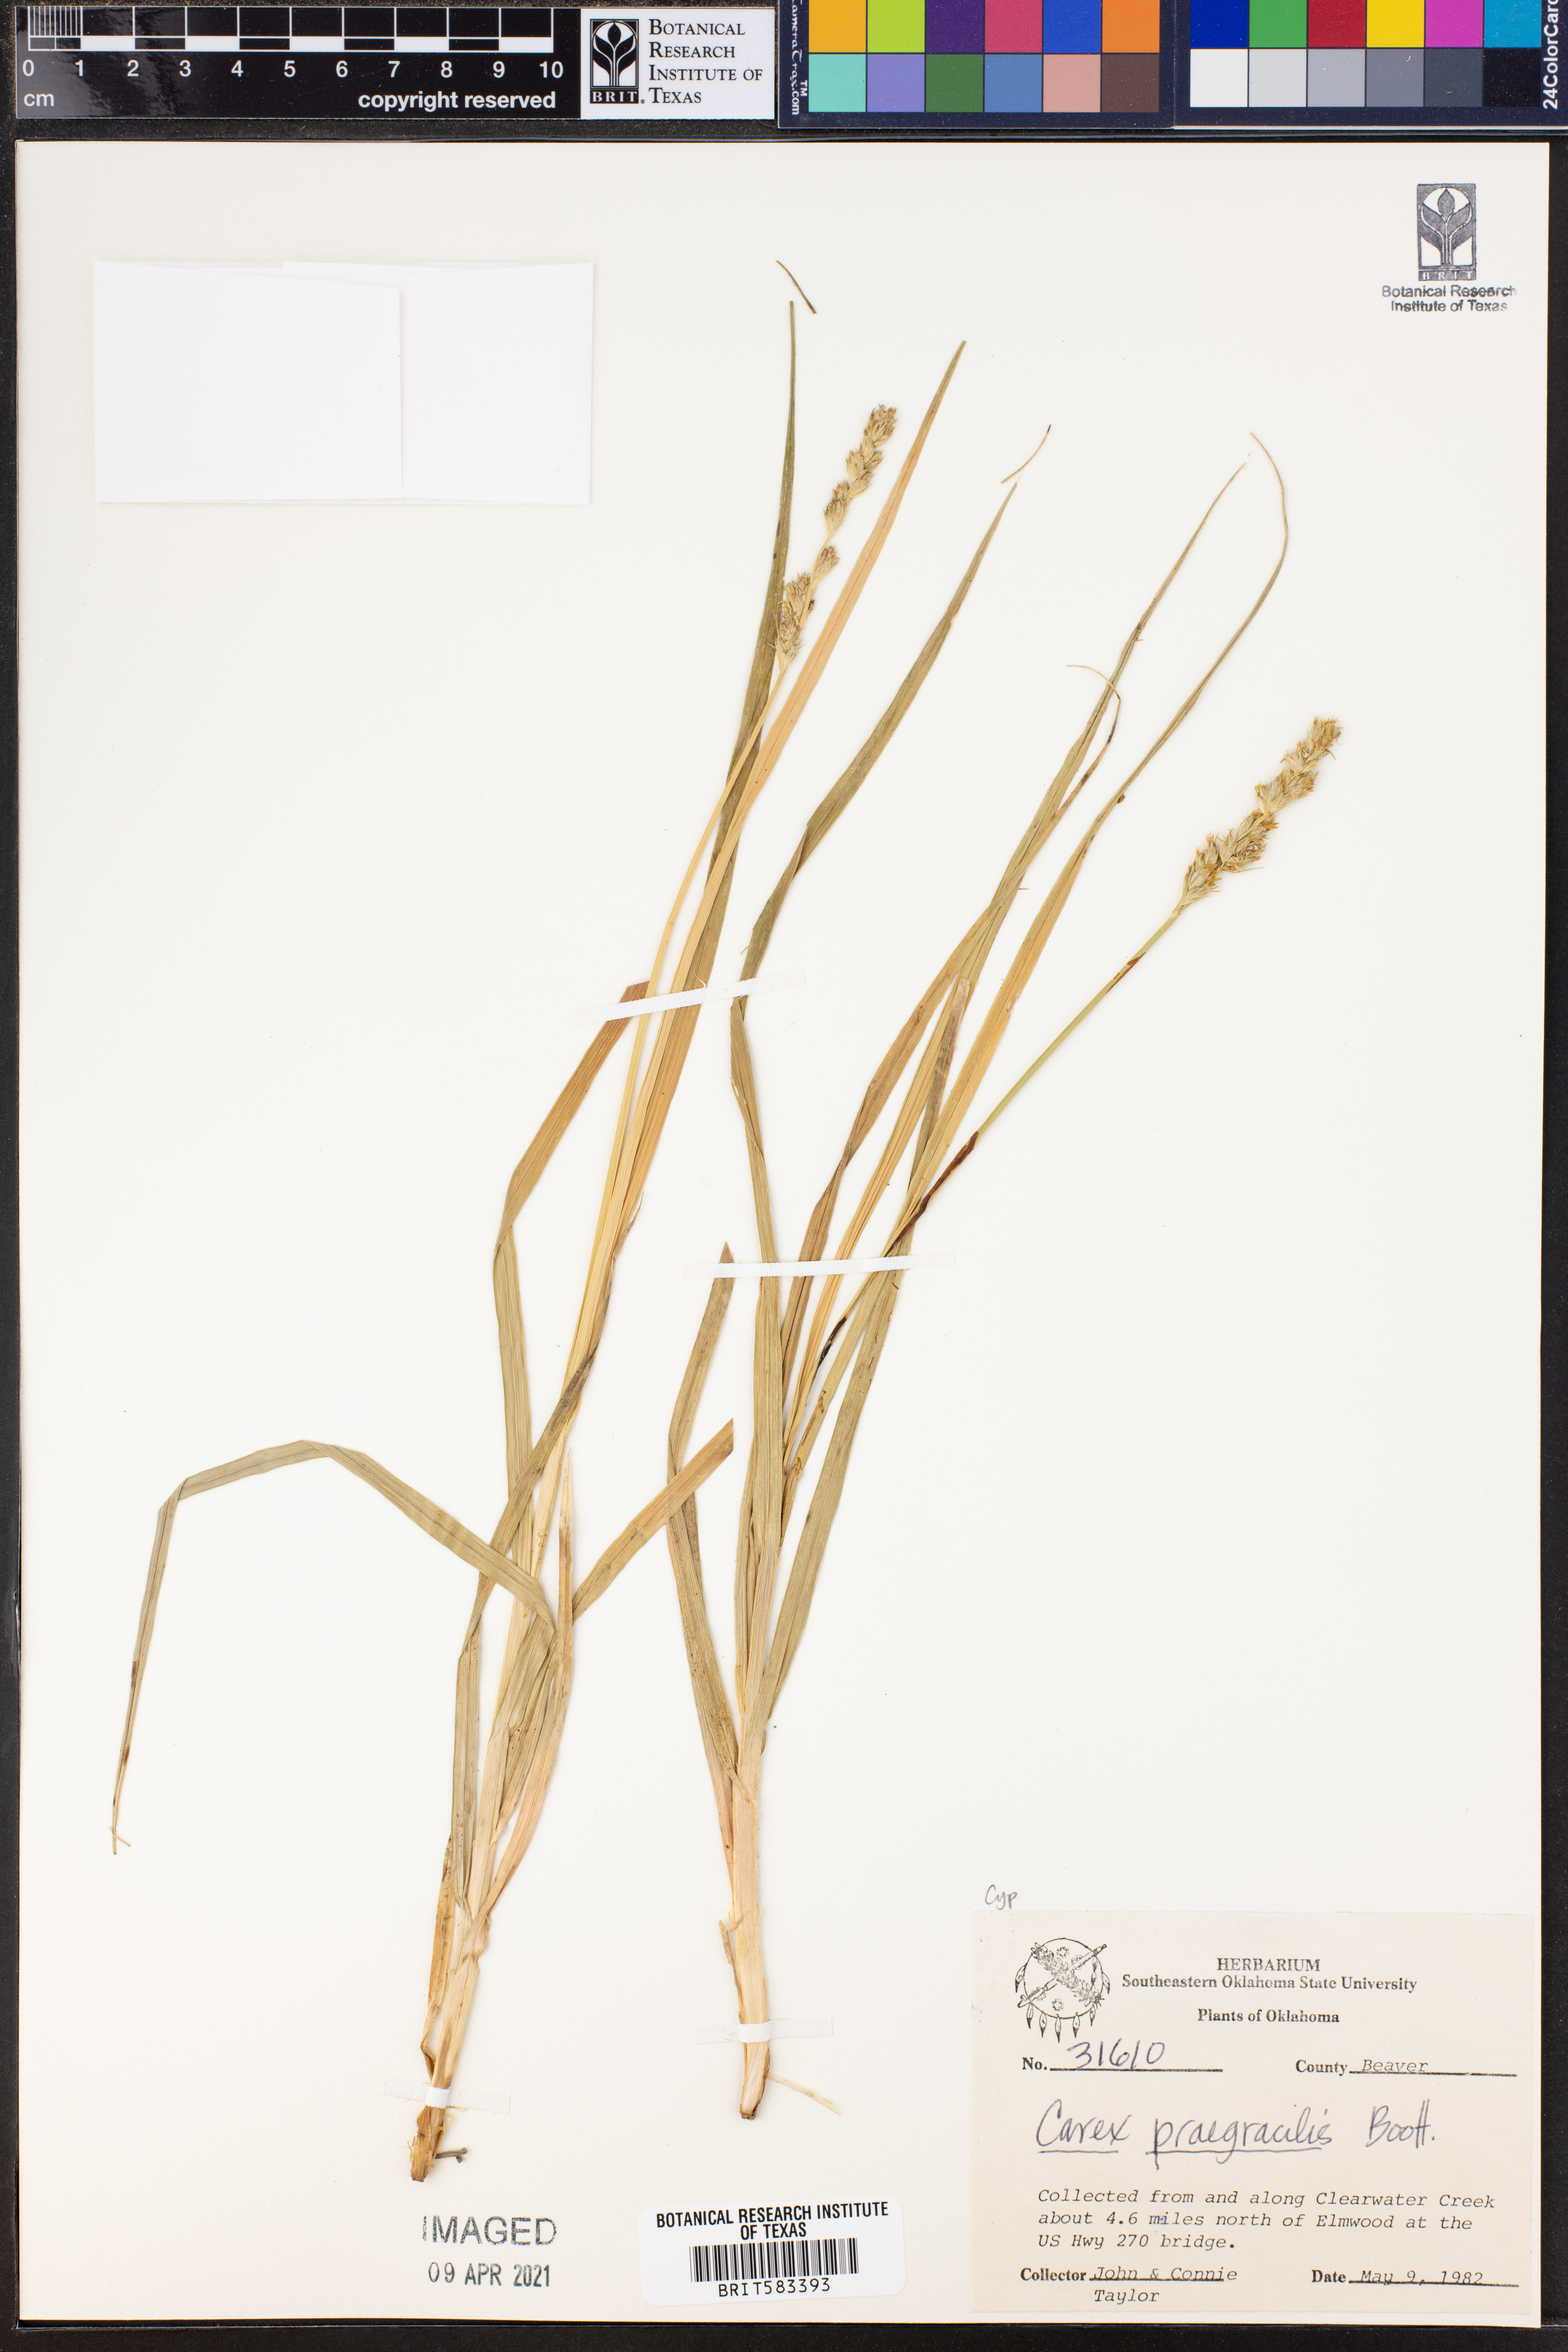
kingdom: Plantae
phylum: Tracheophyta
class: Liliopsida
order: Poales
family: Cyperaceae
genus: Carex
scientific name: Carex praegracilis
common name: Black creeper sedge
